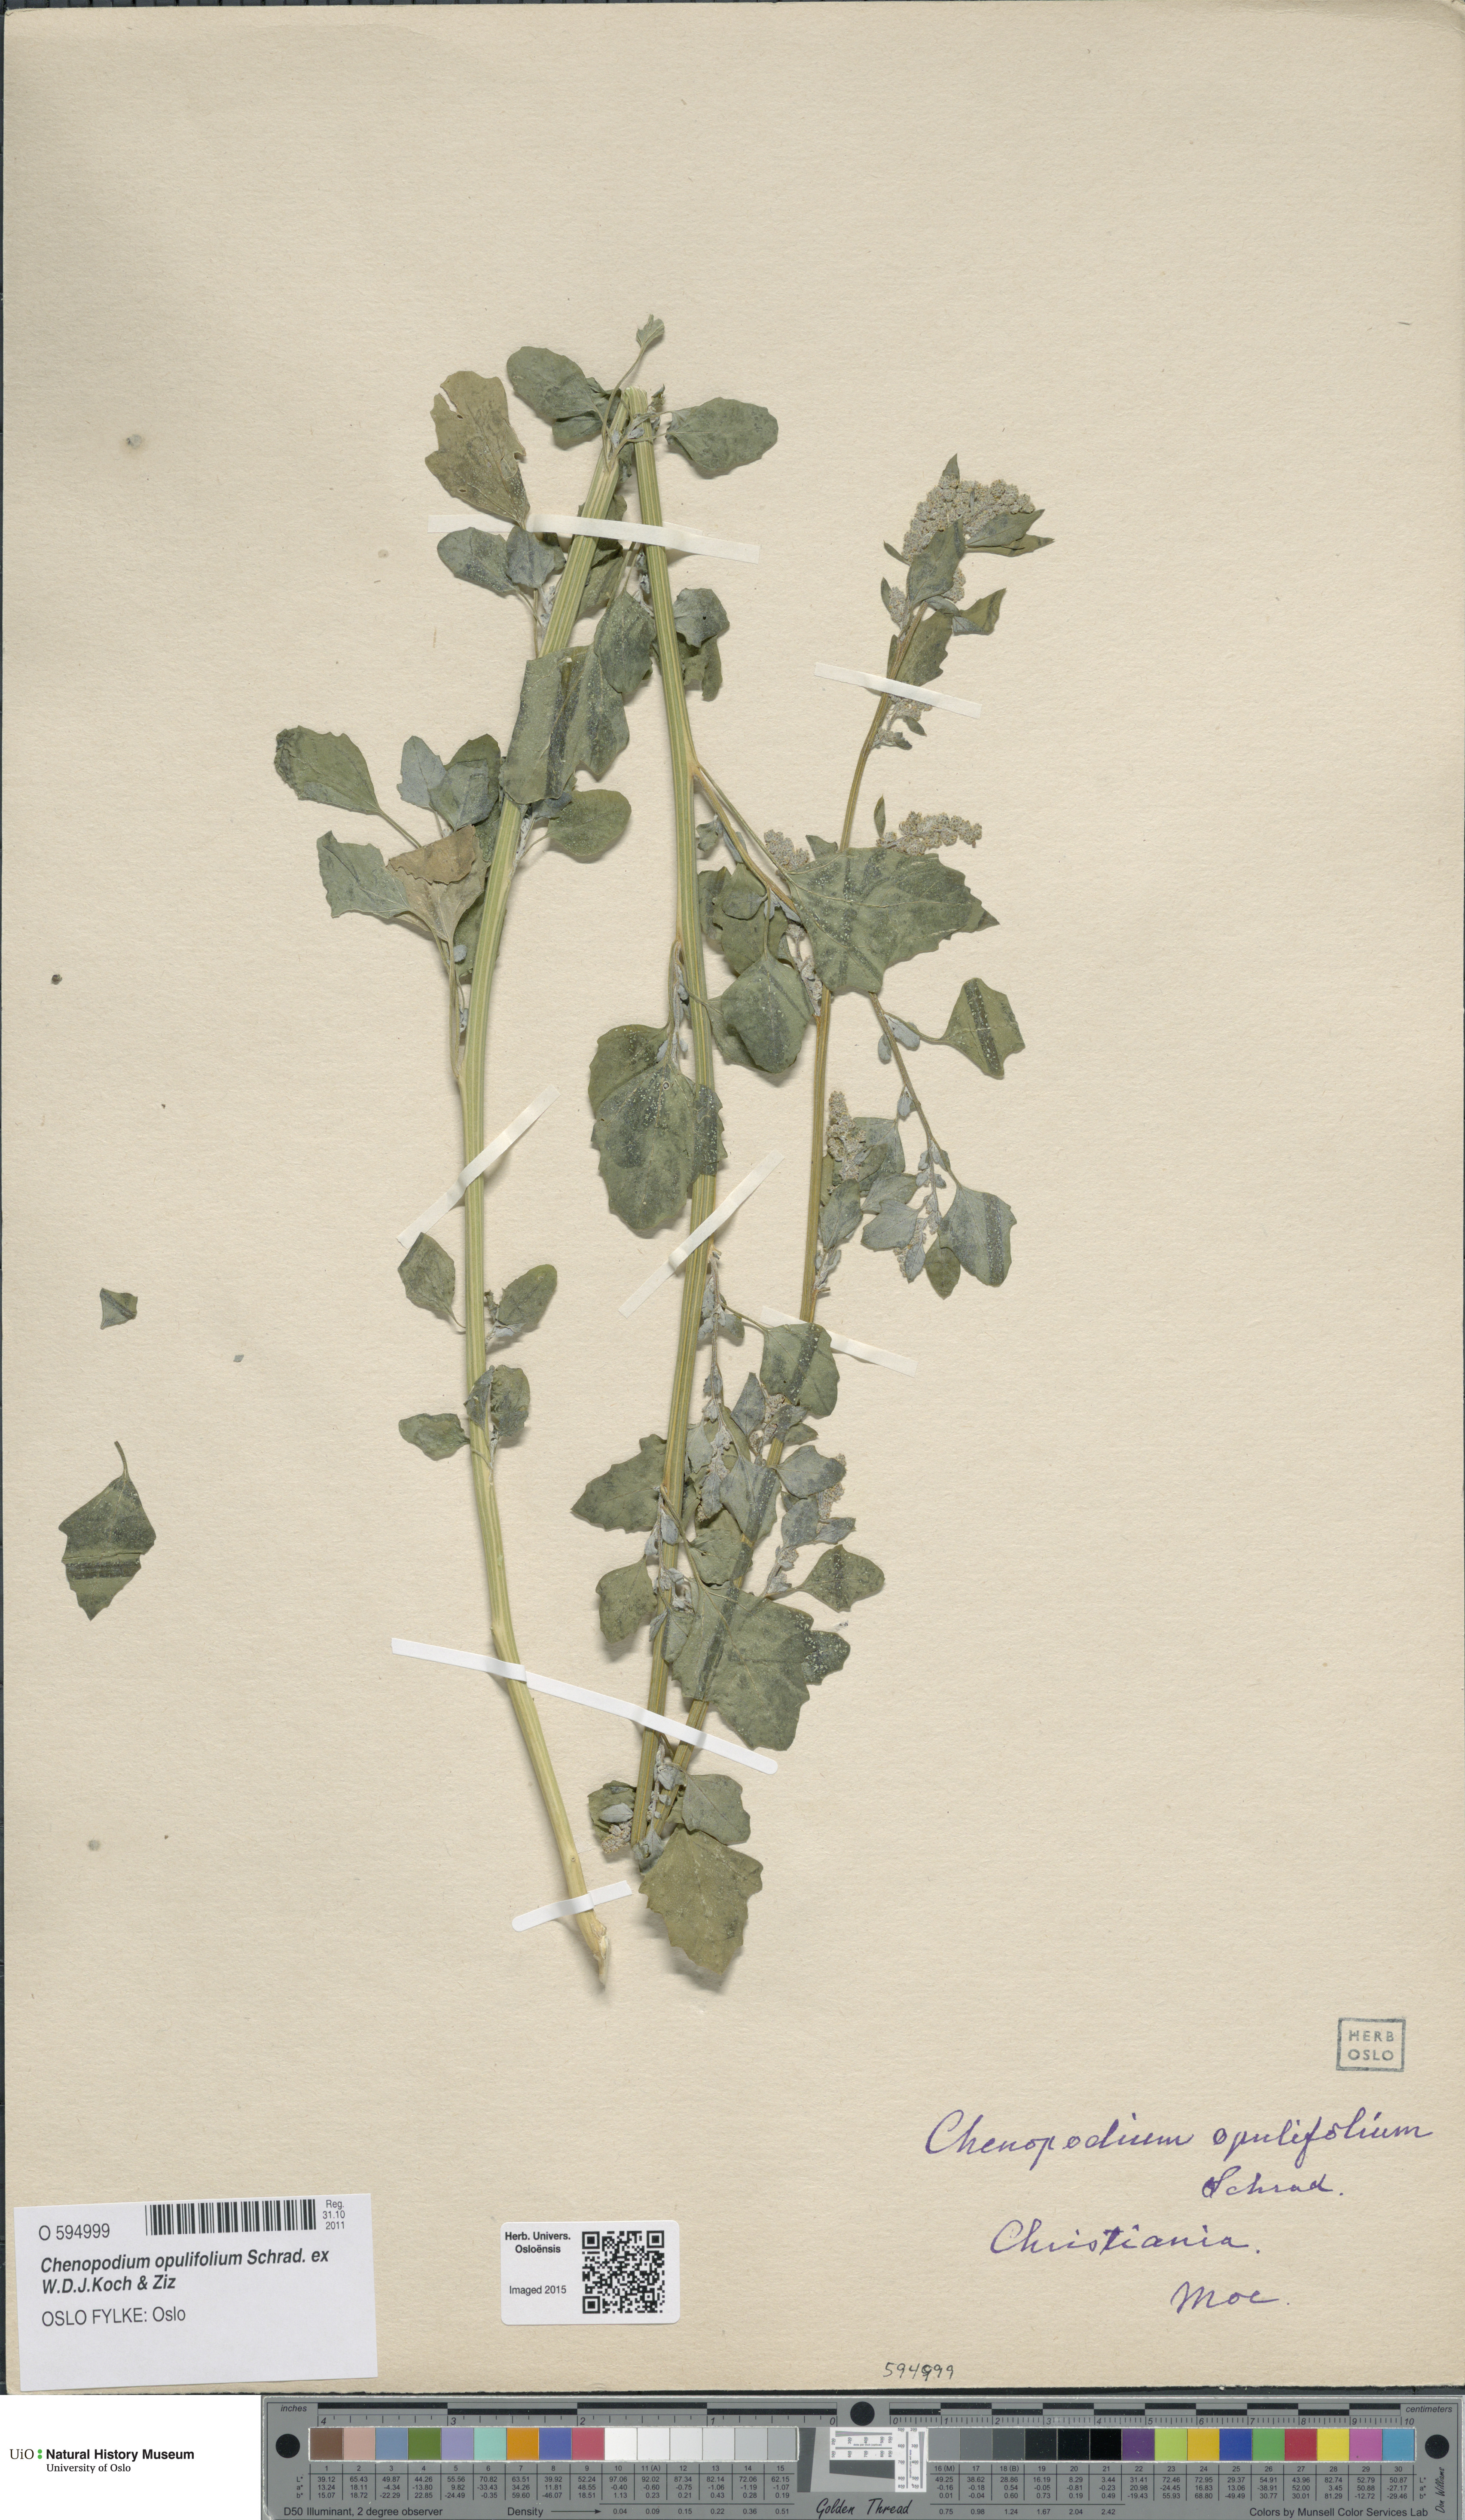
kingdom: Plantae
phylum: Tracheophyta
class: Magnoliopsida
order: Caryophyllales
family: Amaranthaceae
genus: Chenopodium
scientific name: Chenopodium opulifolium
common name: Grey goosefoot
